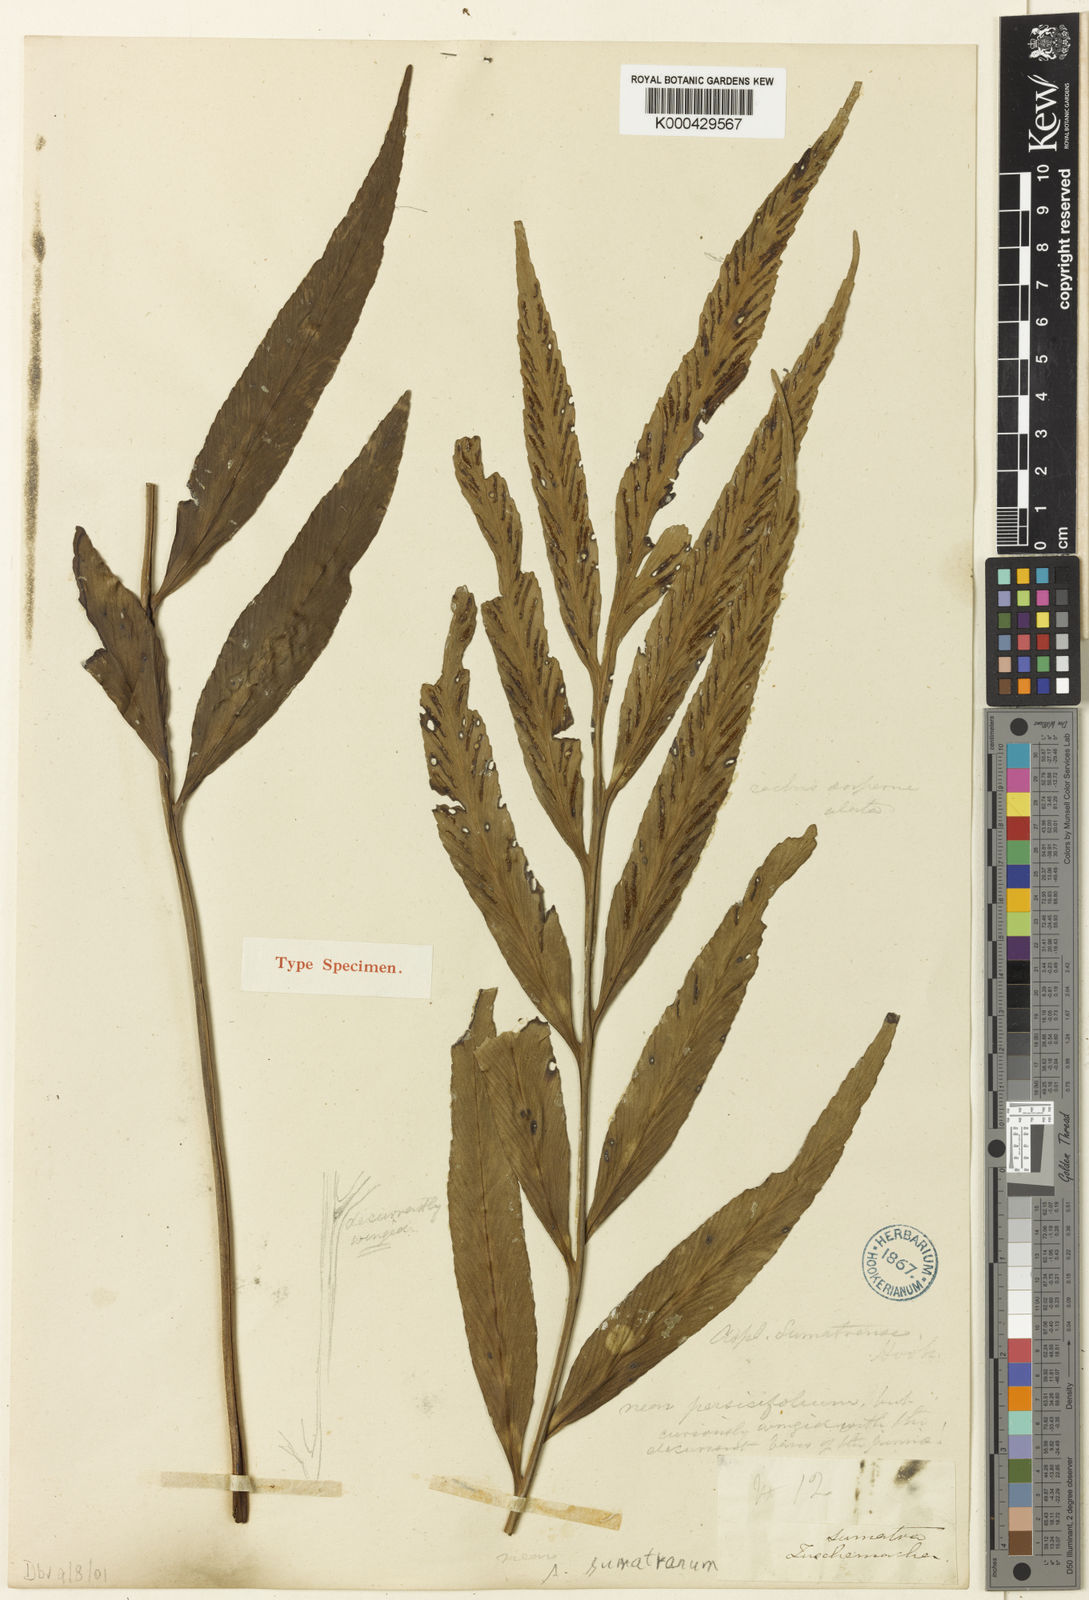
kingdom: Plantae
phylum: Tracheophyta
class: Polypodiopsida
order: Polypodiales
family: Aspleniaceae
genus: Asplenium
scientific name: Asplenium trifoliatum
